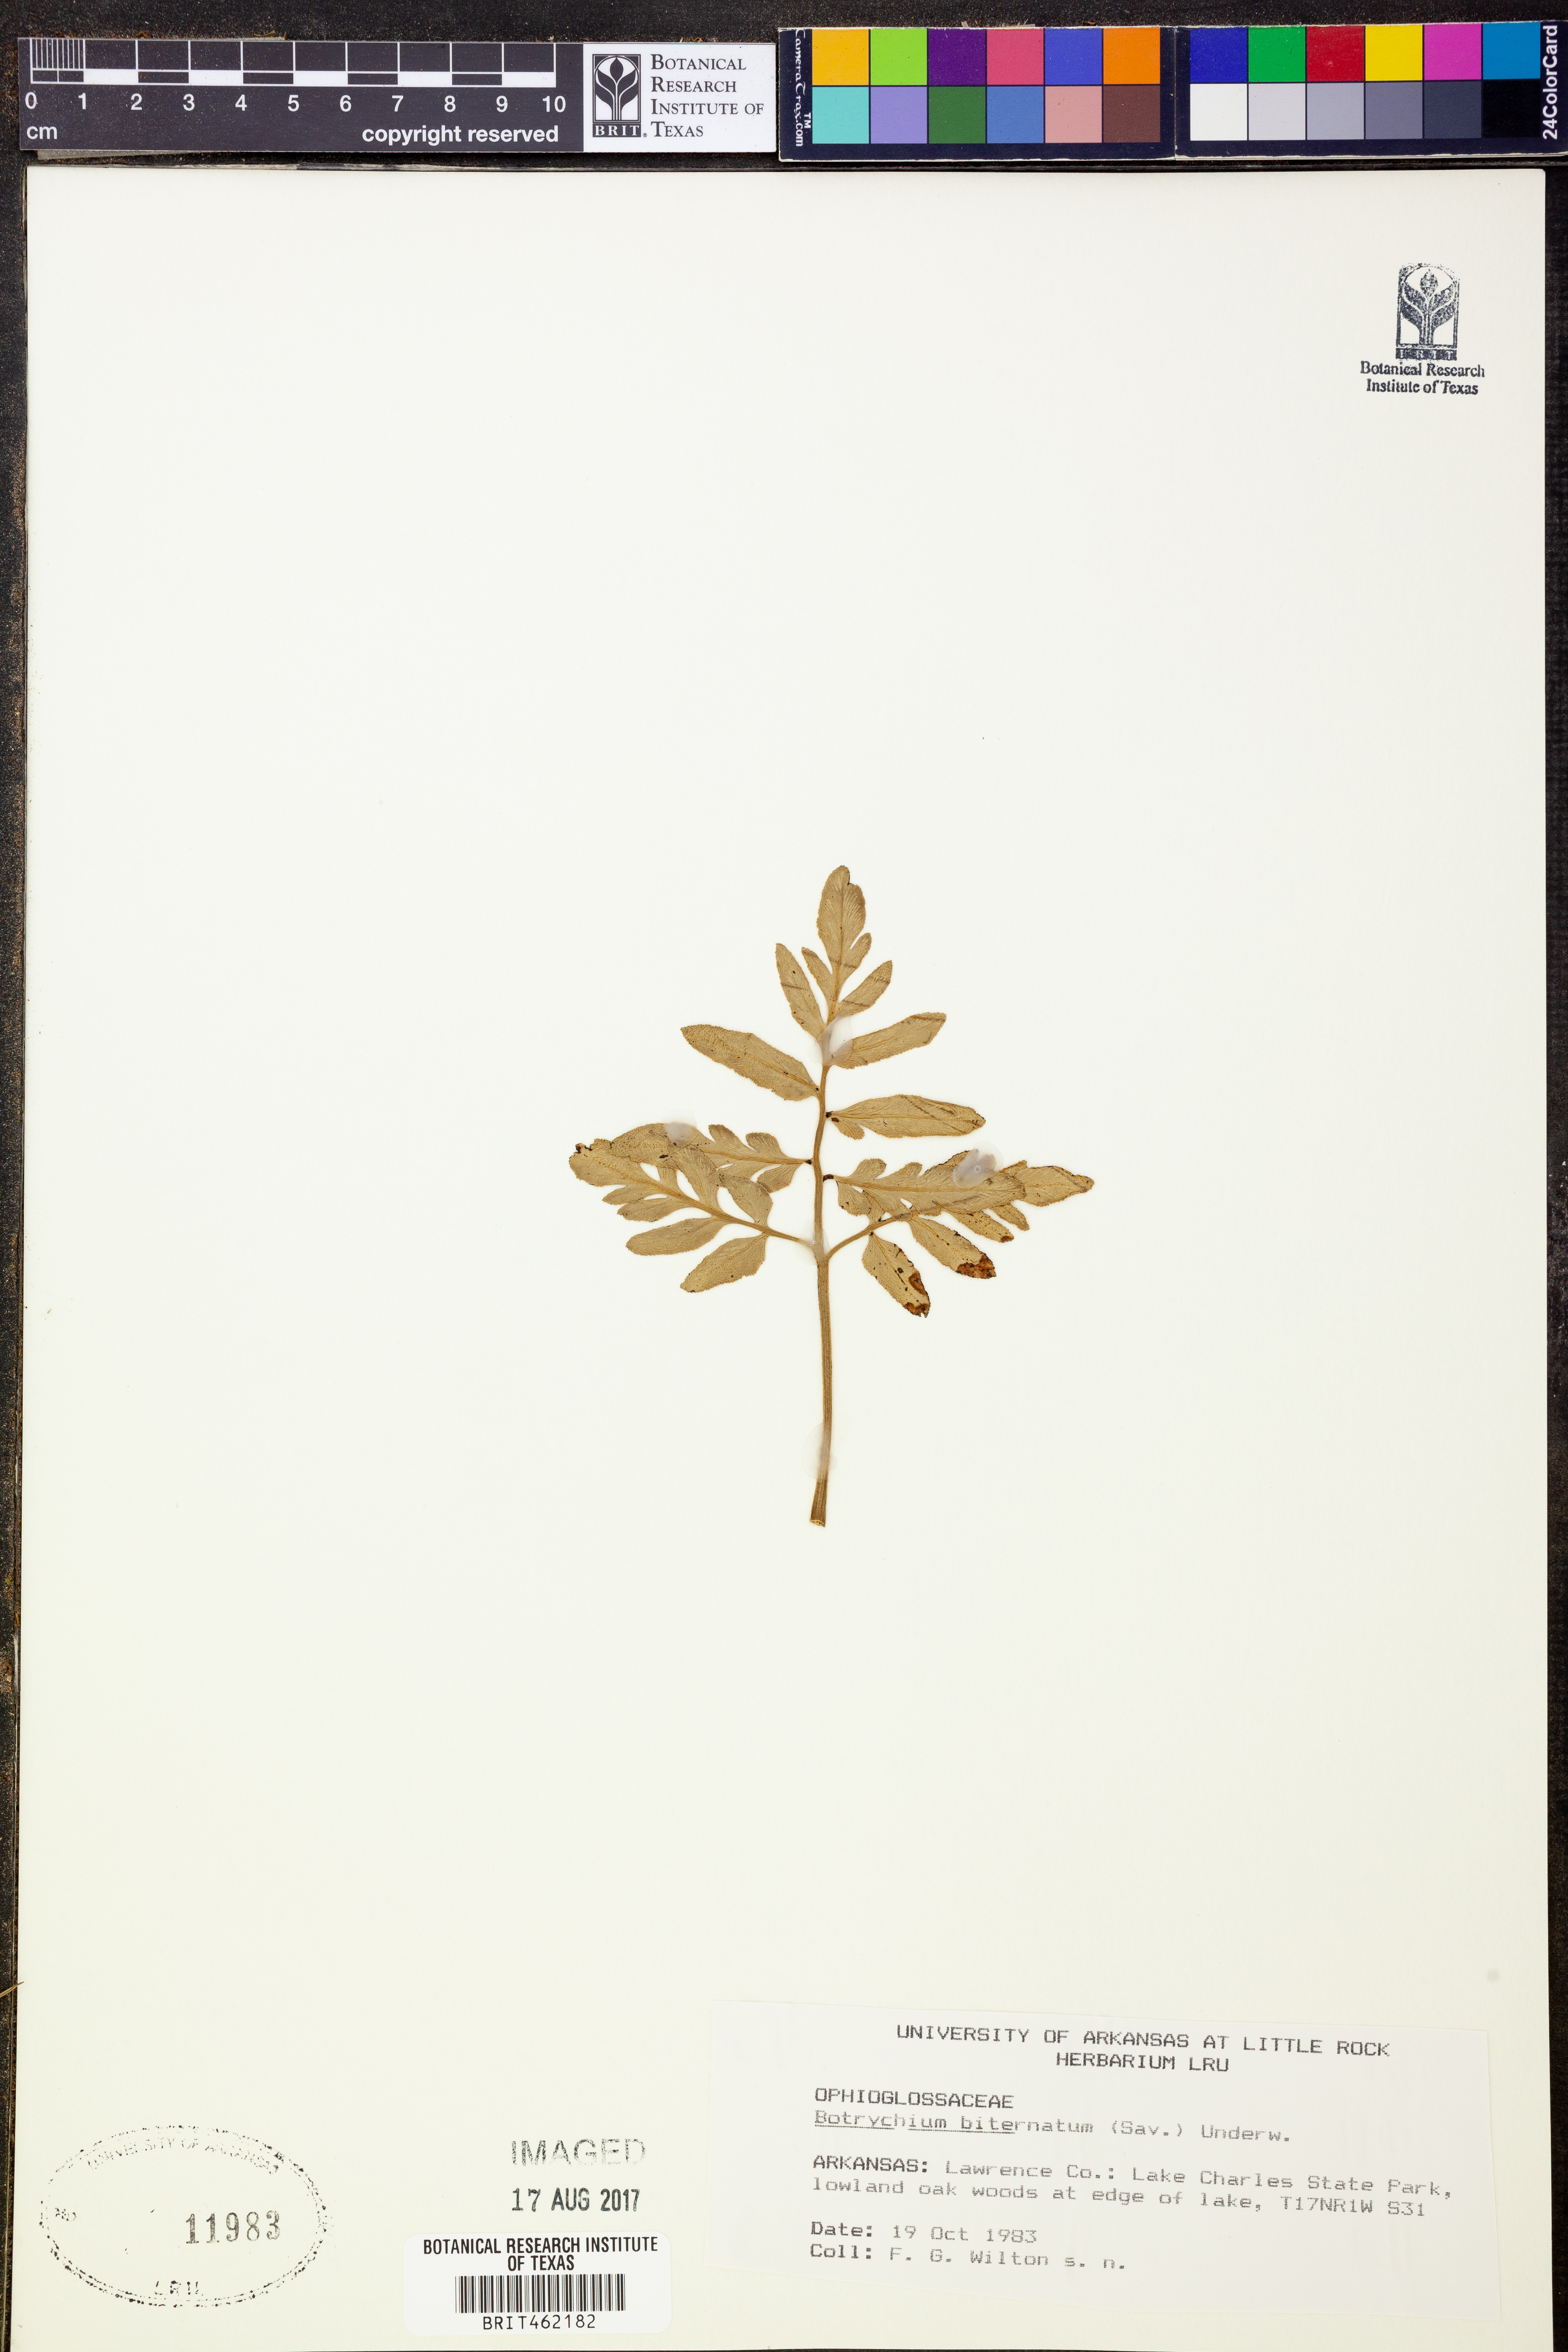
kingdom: Plantae
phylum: Tracheophyta
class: Polypodiopsida
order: Ophioglossales
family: Ophioglossaceae
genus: Sceptridium
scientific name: Sceptridium biternatum
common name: Sparse-lobed grapefern
